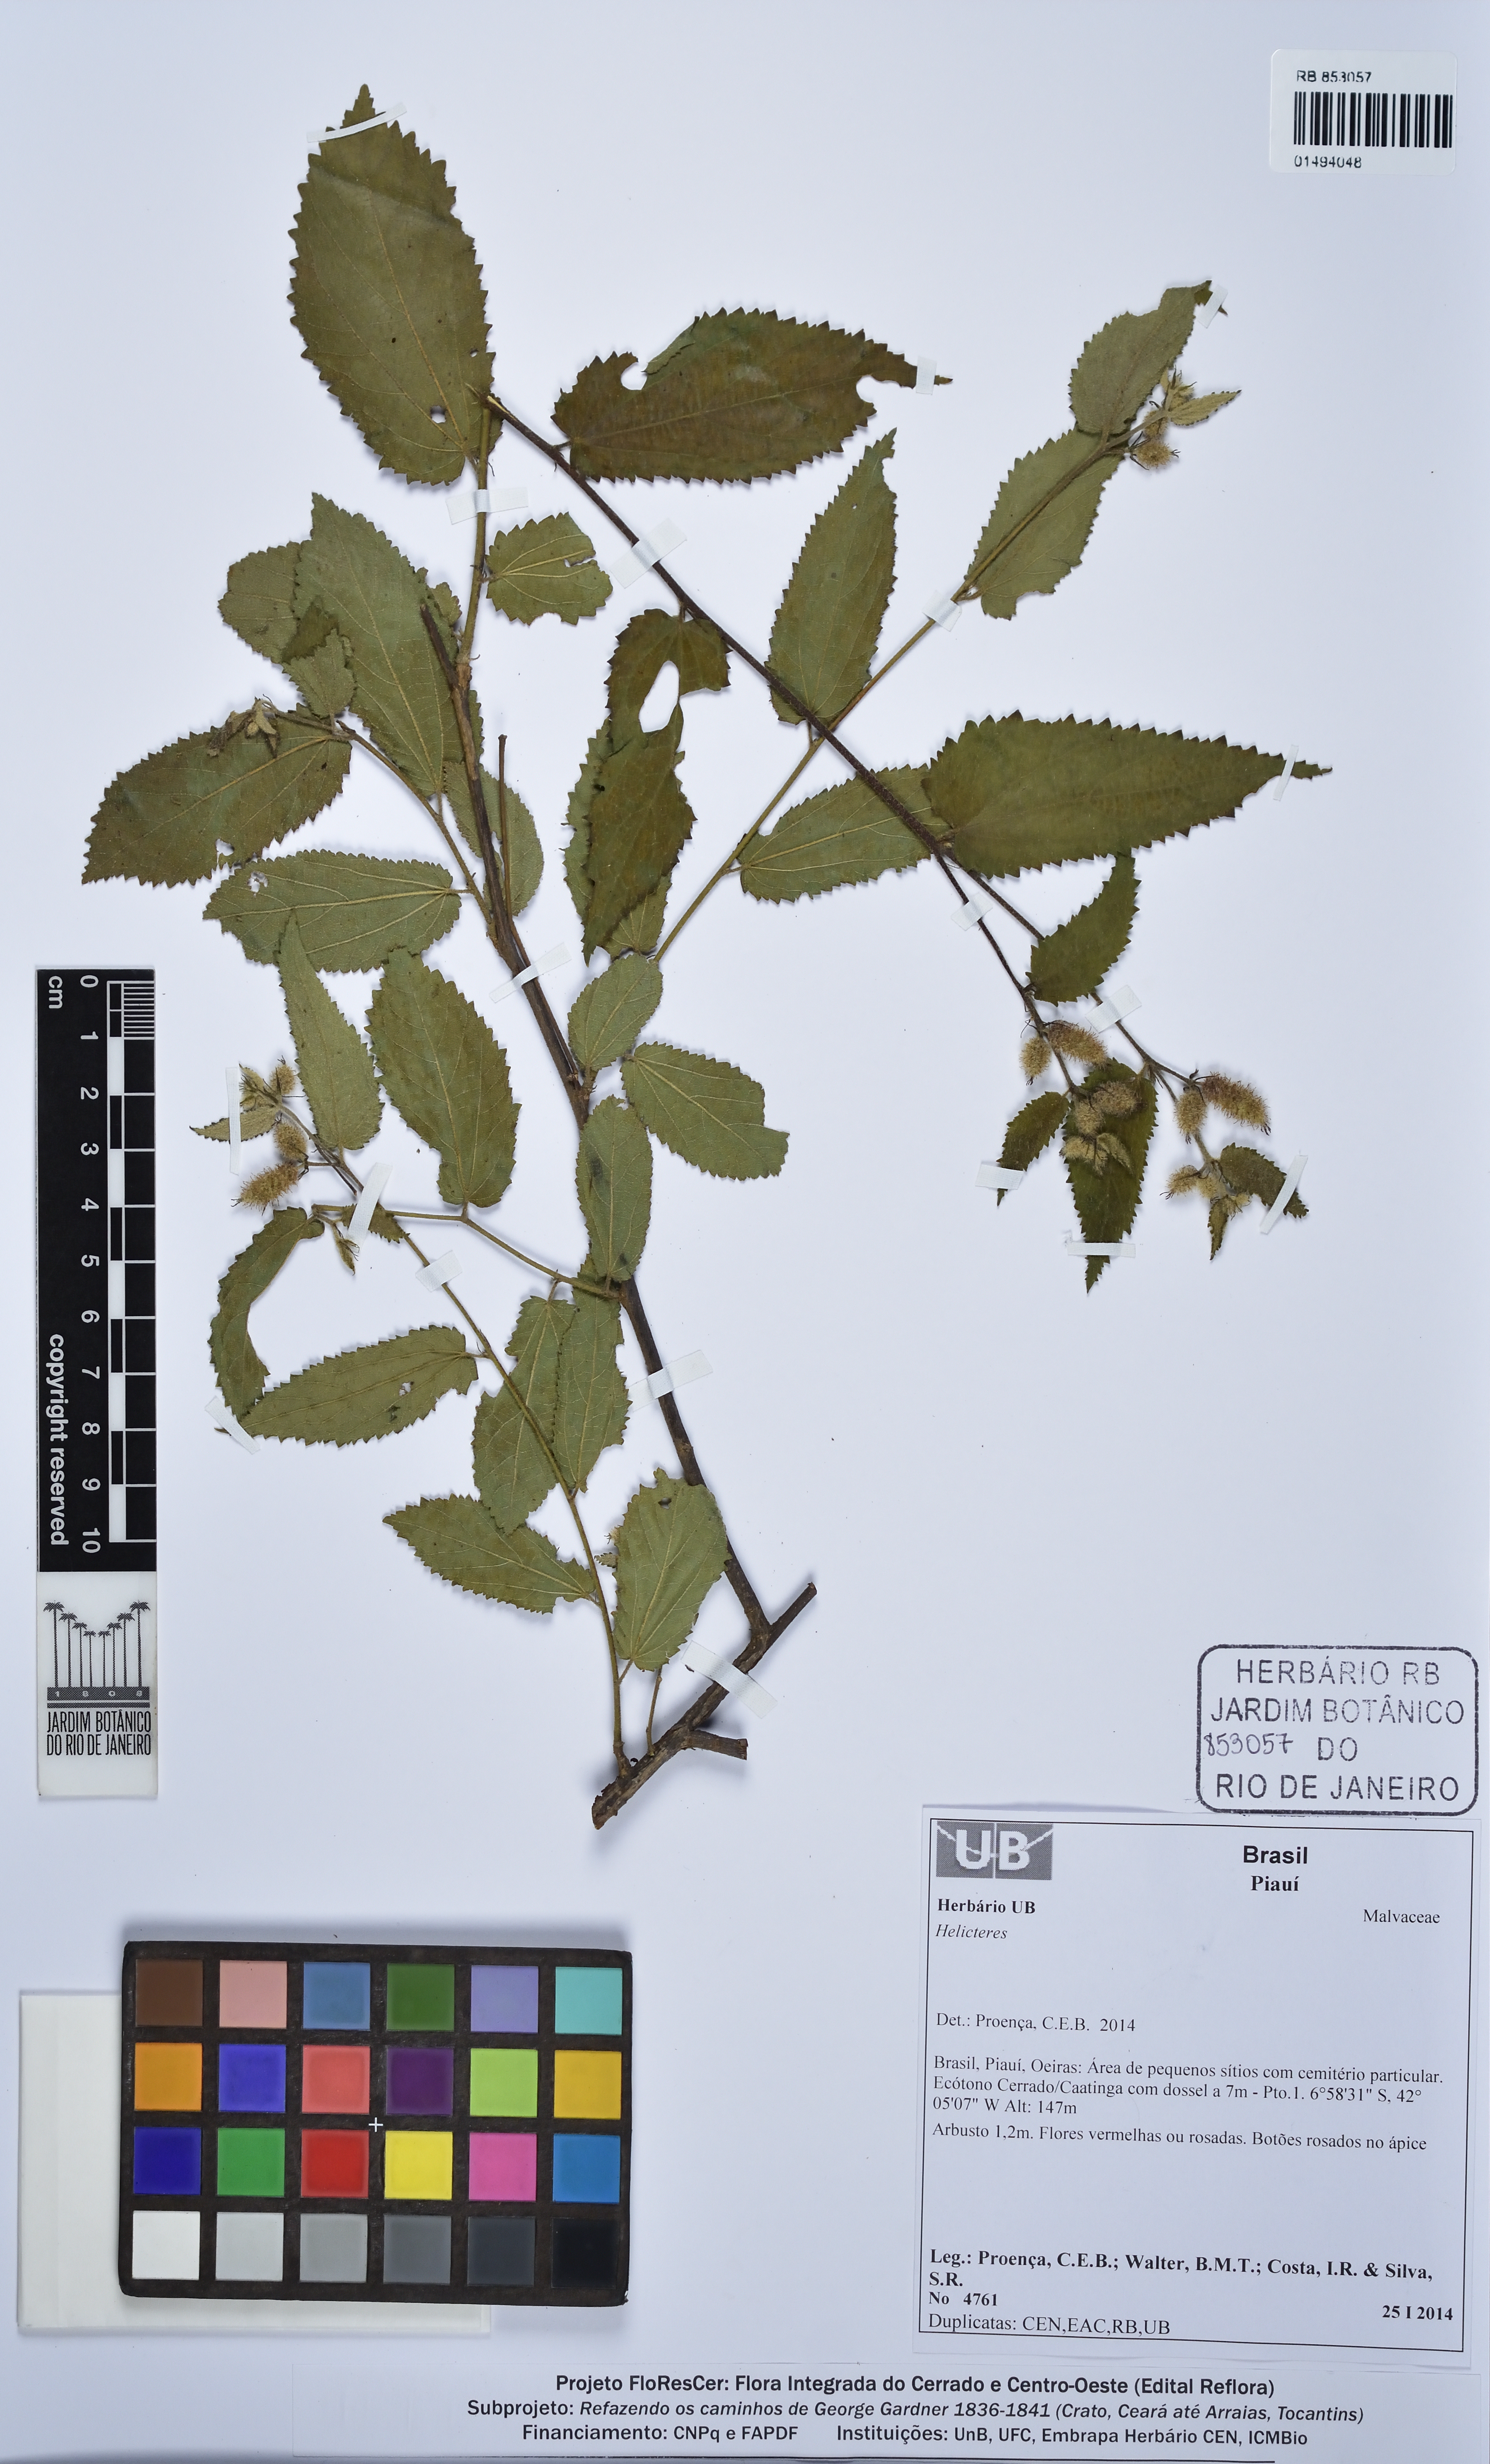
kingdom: Plantae
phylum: Tracheophyta
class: Magnoliopsida
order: Malvales
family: Malvaceae
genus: Helicteres
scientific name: Helicteres
